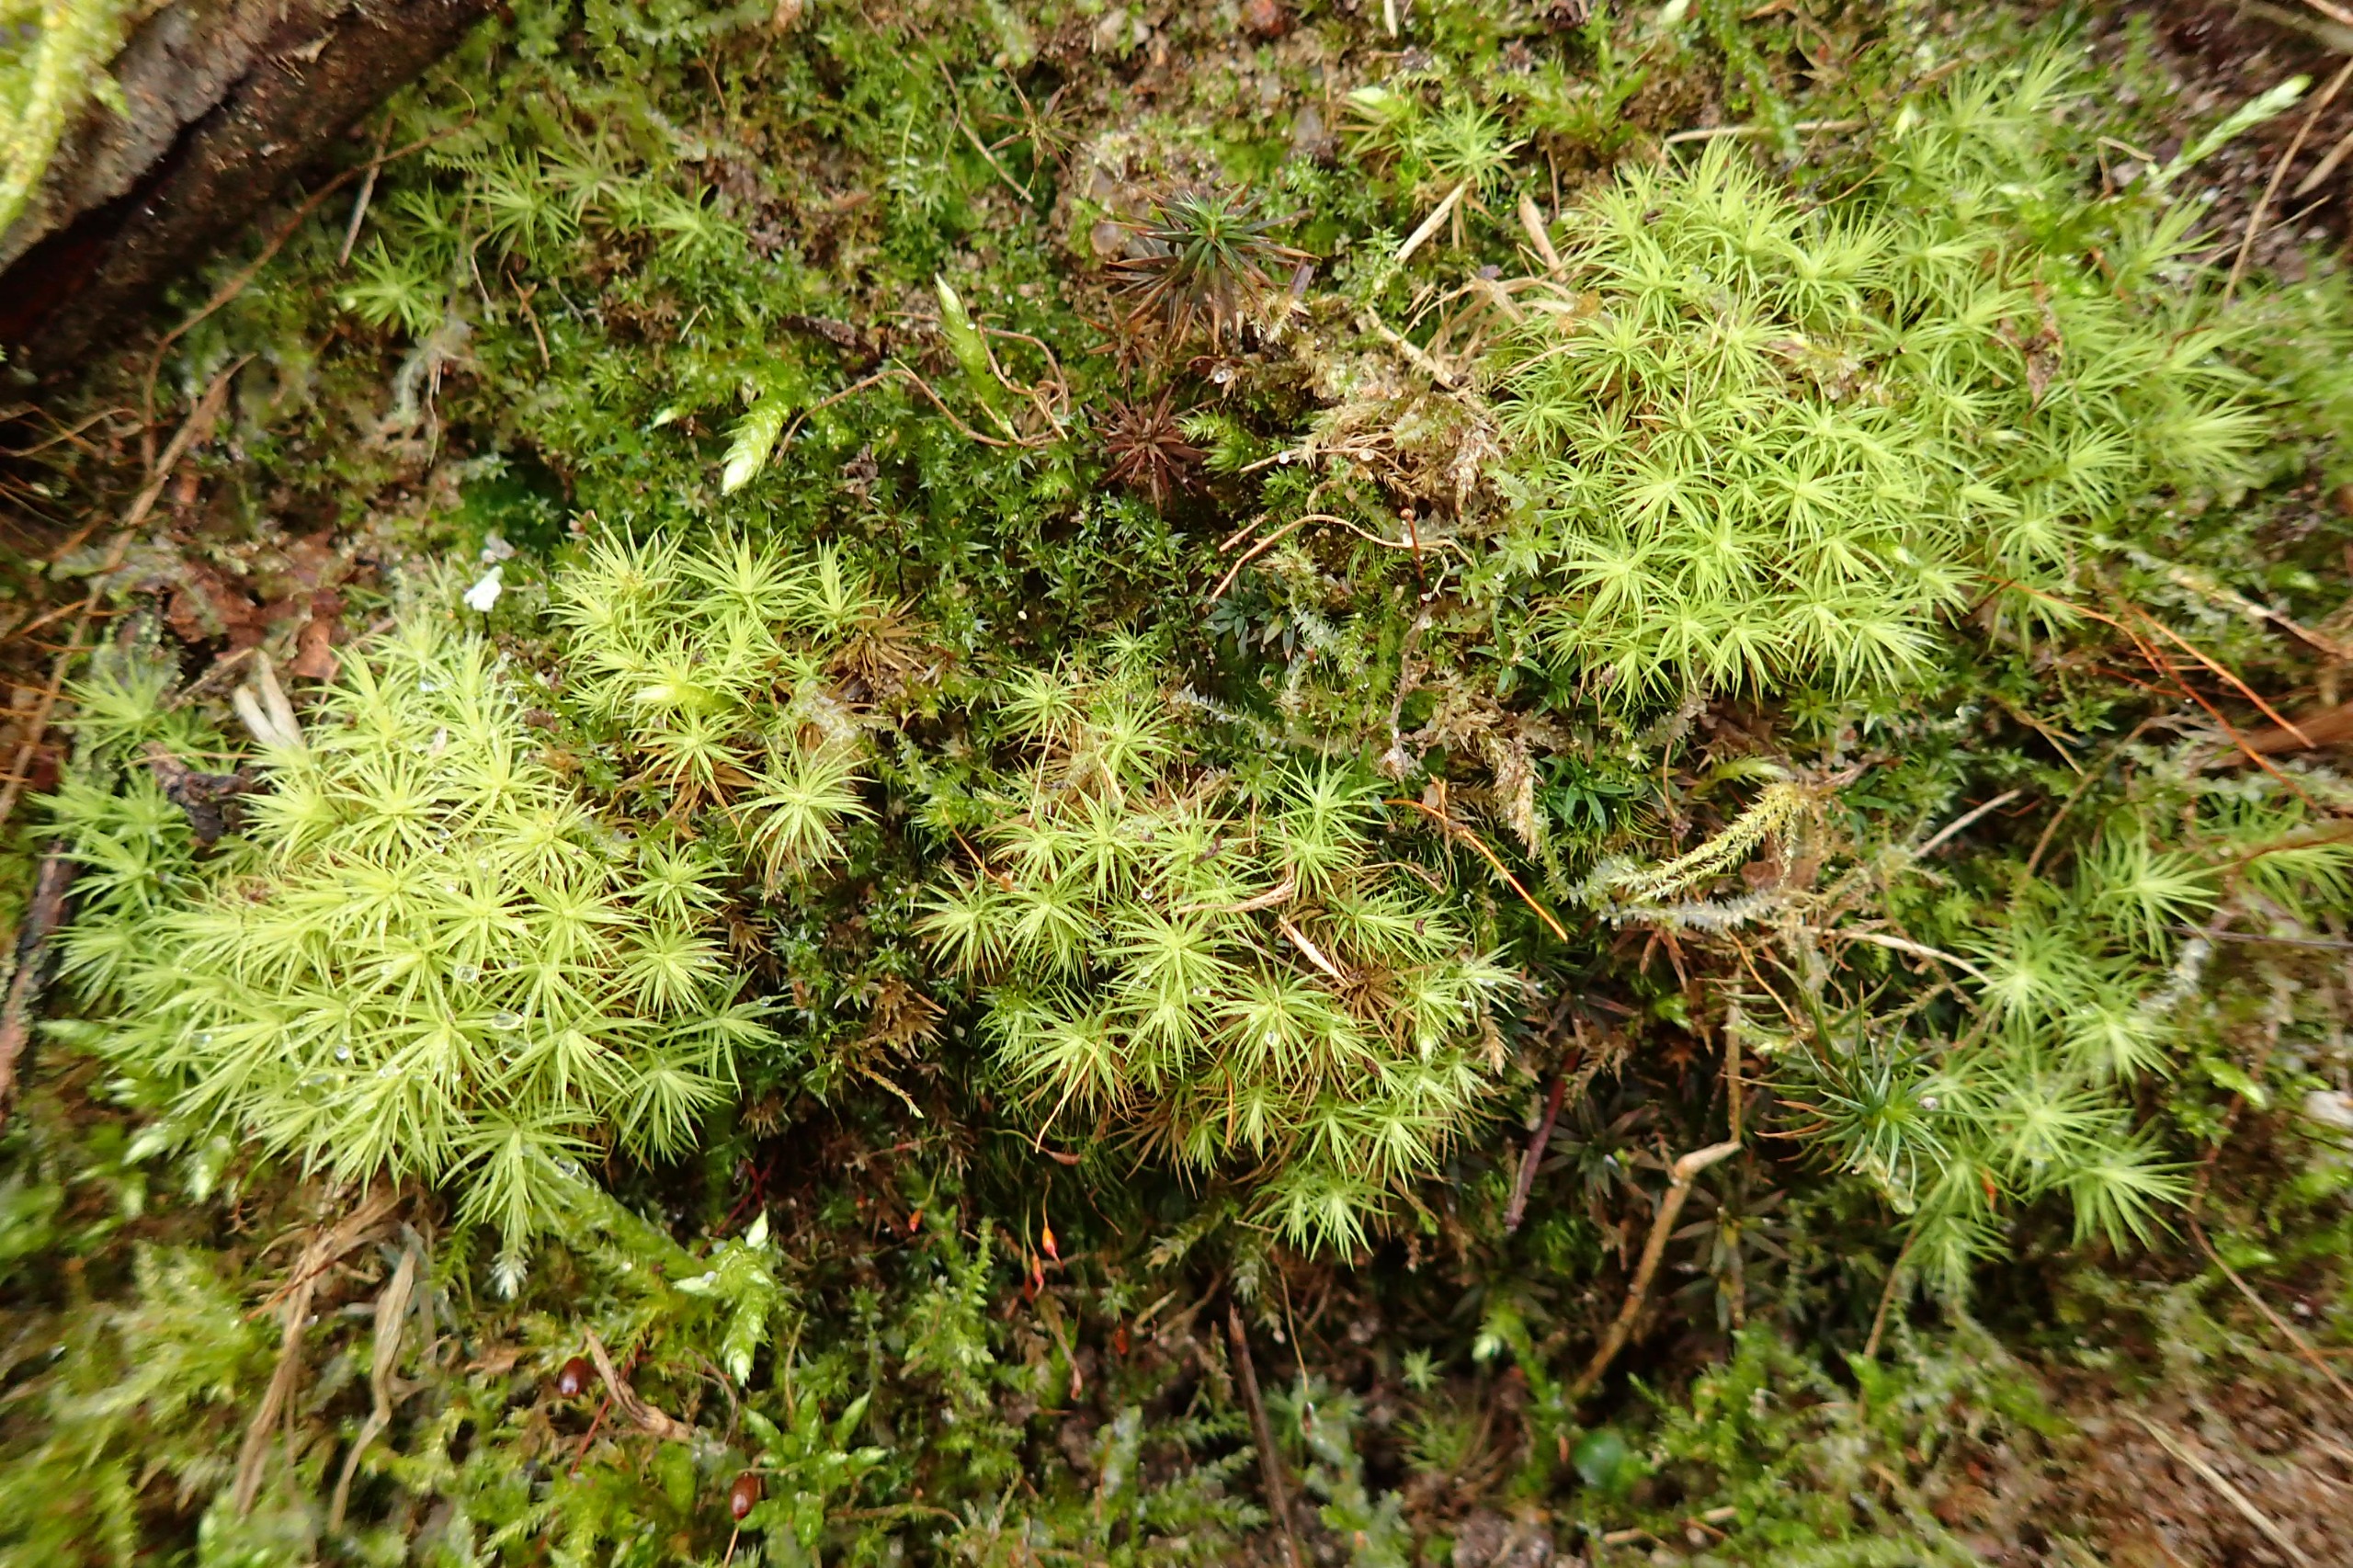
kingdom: Plantae
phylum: Bryophyta
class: Bryopsida
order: Bartramiales
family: Bartramiaceae
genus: Bartramia
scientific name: Bartramia pomiformis
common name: Gulgrøn kuglekapsel
